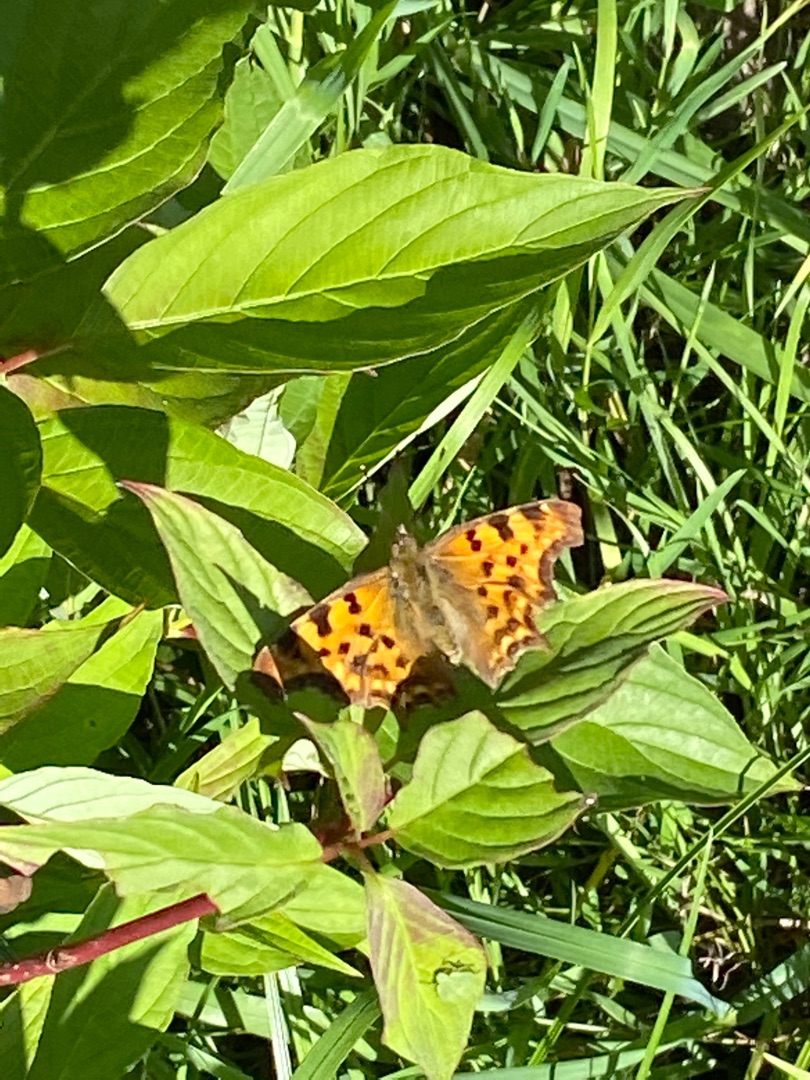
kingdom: Animalia
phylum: Arthropoda
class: Insecta
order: Lepidoptera
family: Nymphalidae
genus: Polygonia
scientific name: Polygonia c-album
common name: Det hvide C
